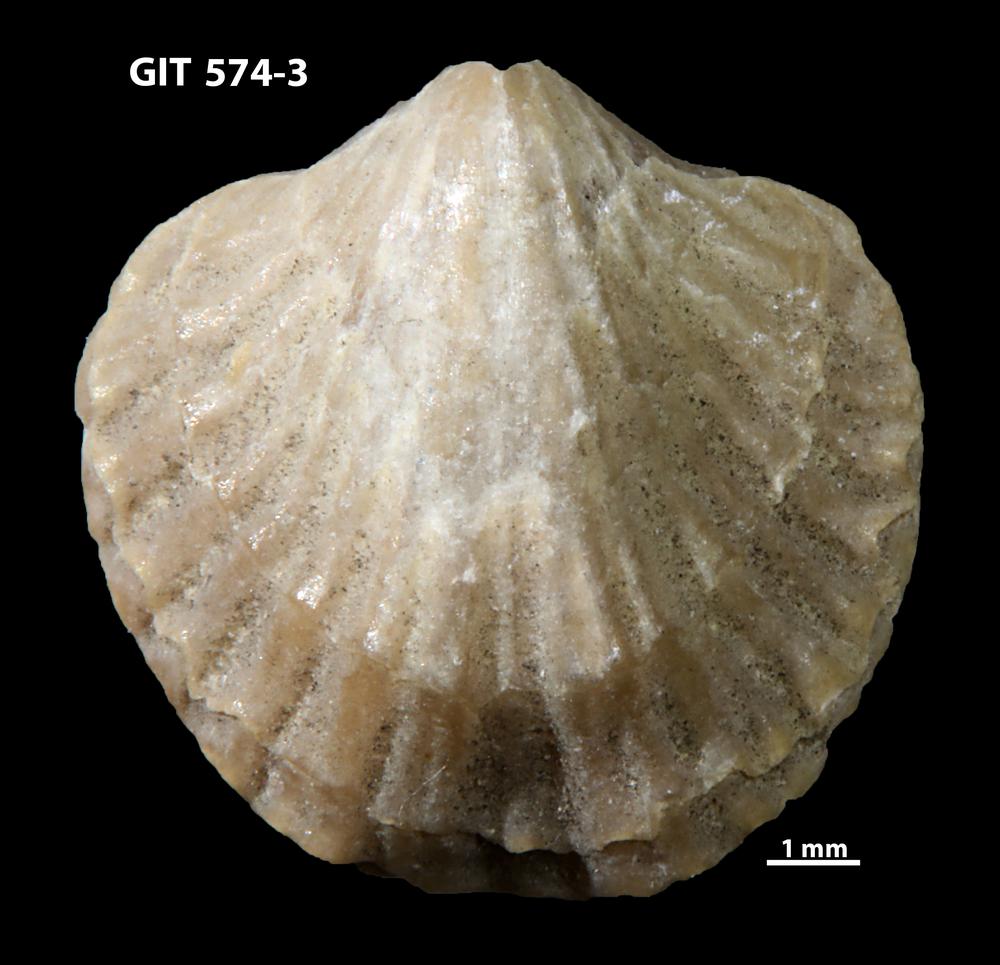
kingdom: Animalia
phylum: Brachiopoda
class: Rhynchonellata
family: Atrypinidae
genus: Eospirigerina
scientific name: Eospirigerina sulevi
